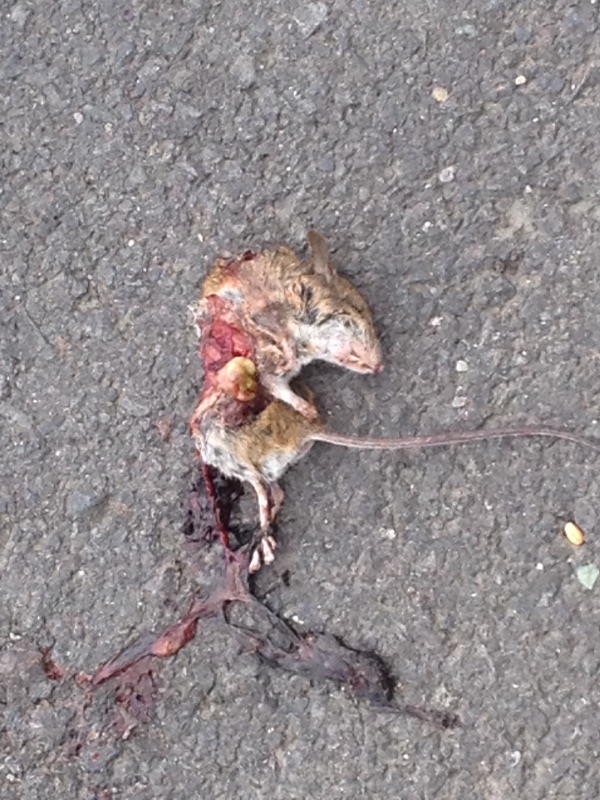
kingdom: Animalia
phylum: Chordata
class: Mammalia
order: Rodentia
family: Muridae
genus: Apodemus
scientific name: Apodemus
